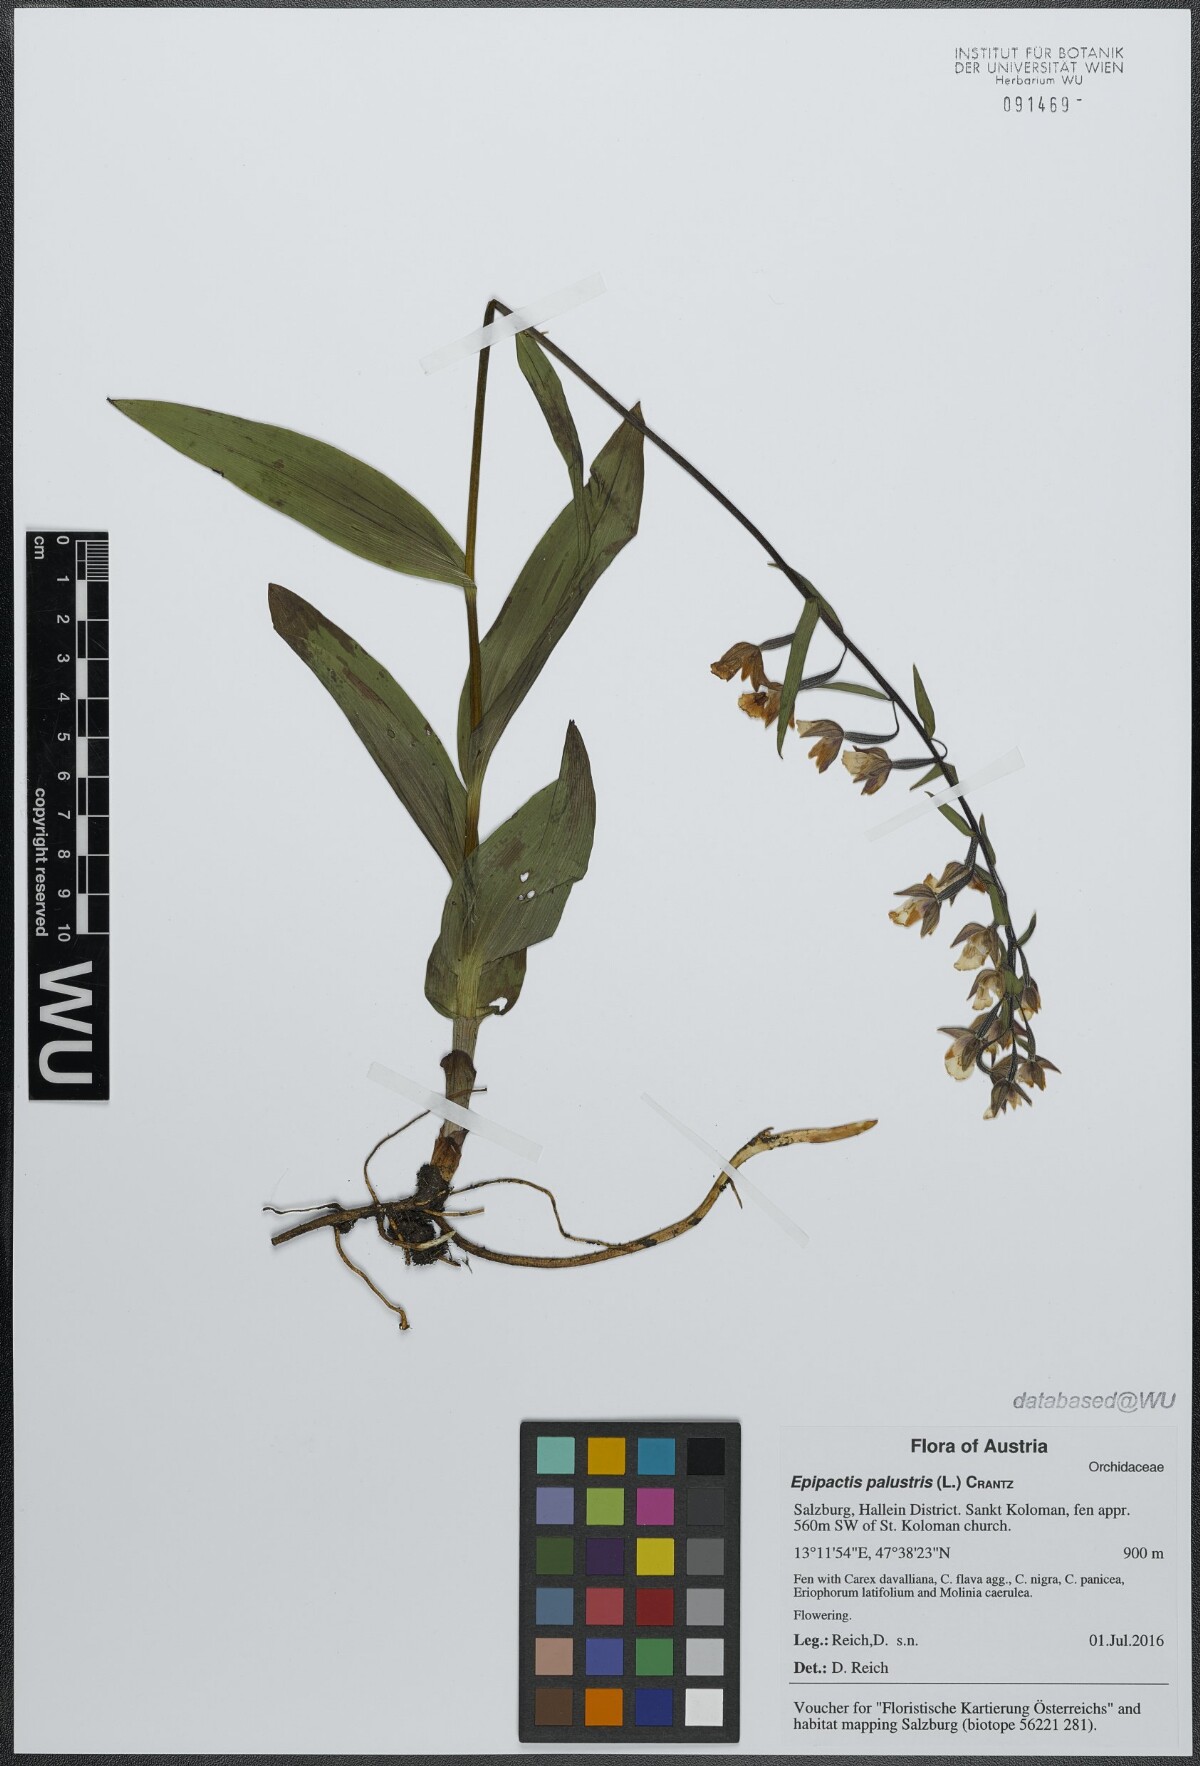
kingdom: Plantae
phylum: Tracheophyta
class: Liliopsida
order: Asparagales
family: Orchidaceae
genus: Epipactis
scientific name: Epipactis palustris
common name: Marsh helleborine
